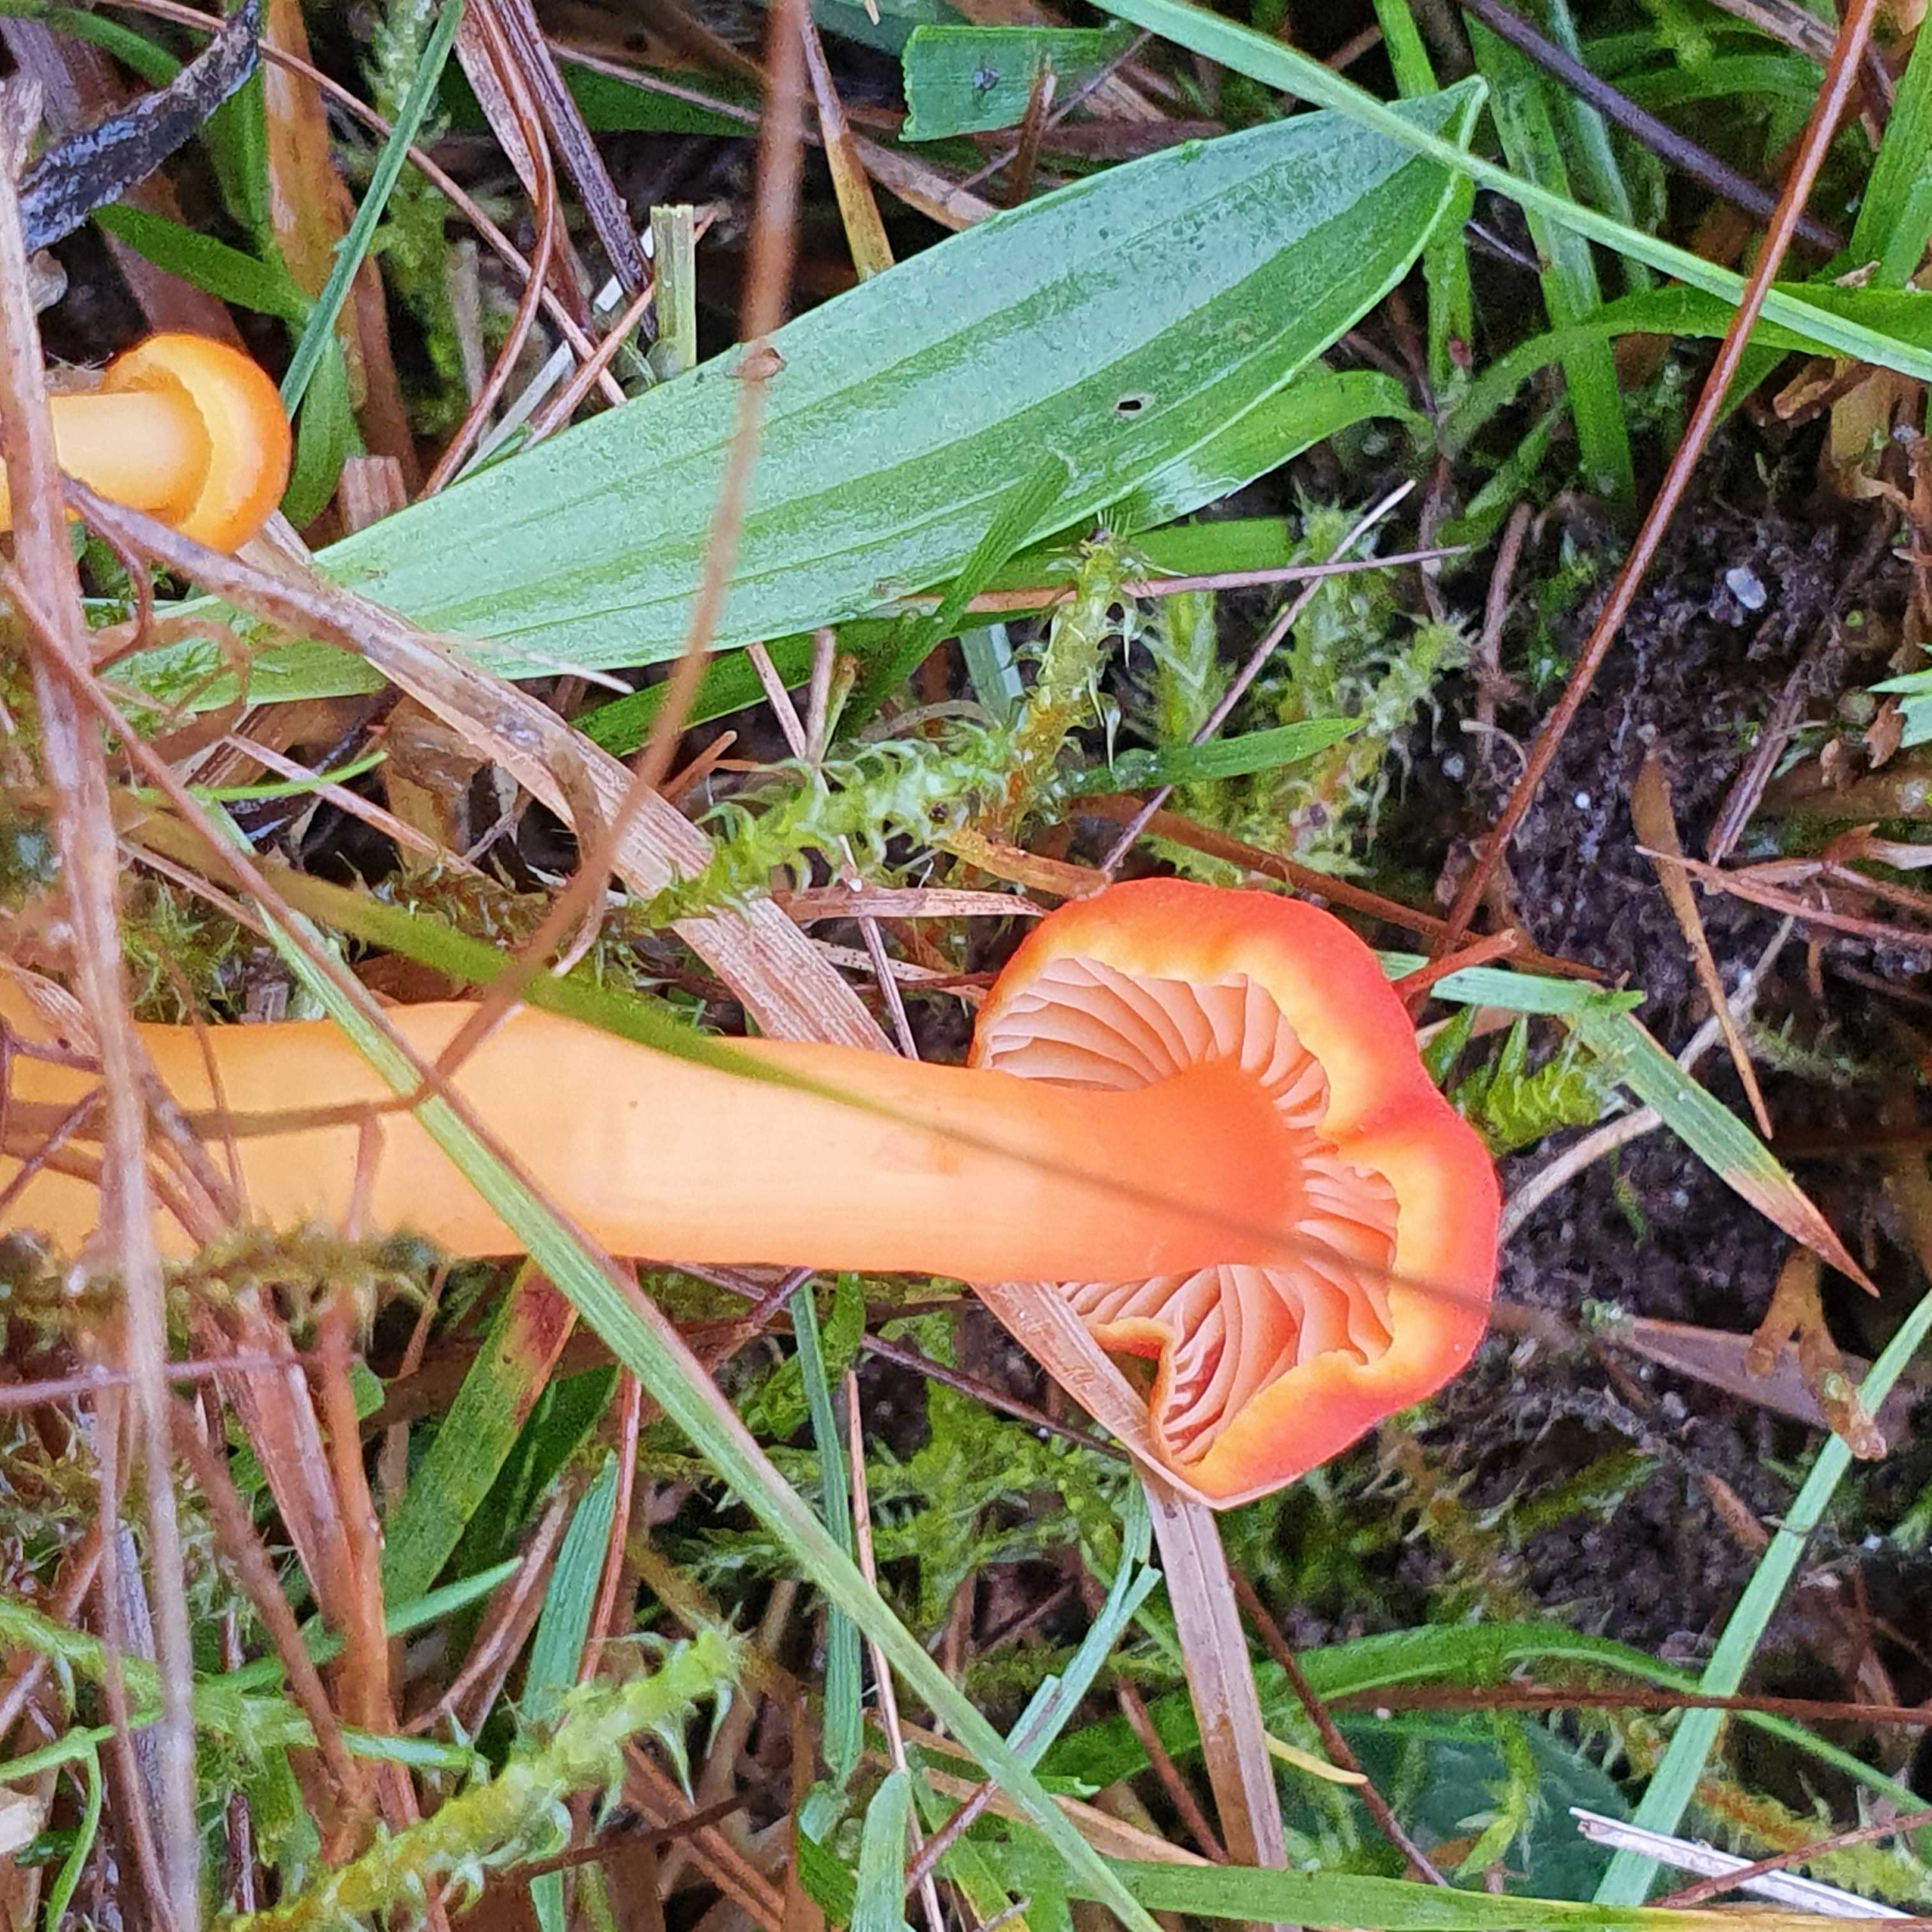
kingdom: Fungi
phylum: Basidiomycota
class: Agaricomycetes
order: Agaricales
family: Hygrophoraceae
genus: Hygrocybe
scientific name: Hygrocybe miniata
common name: mønje-vokshat
